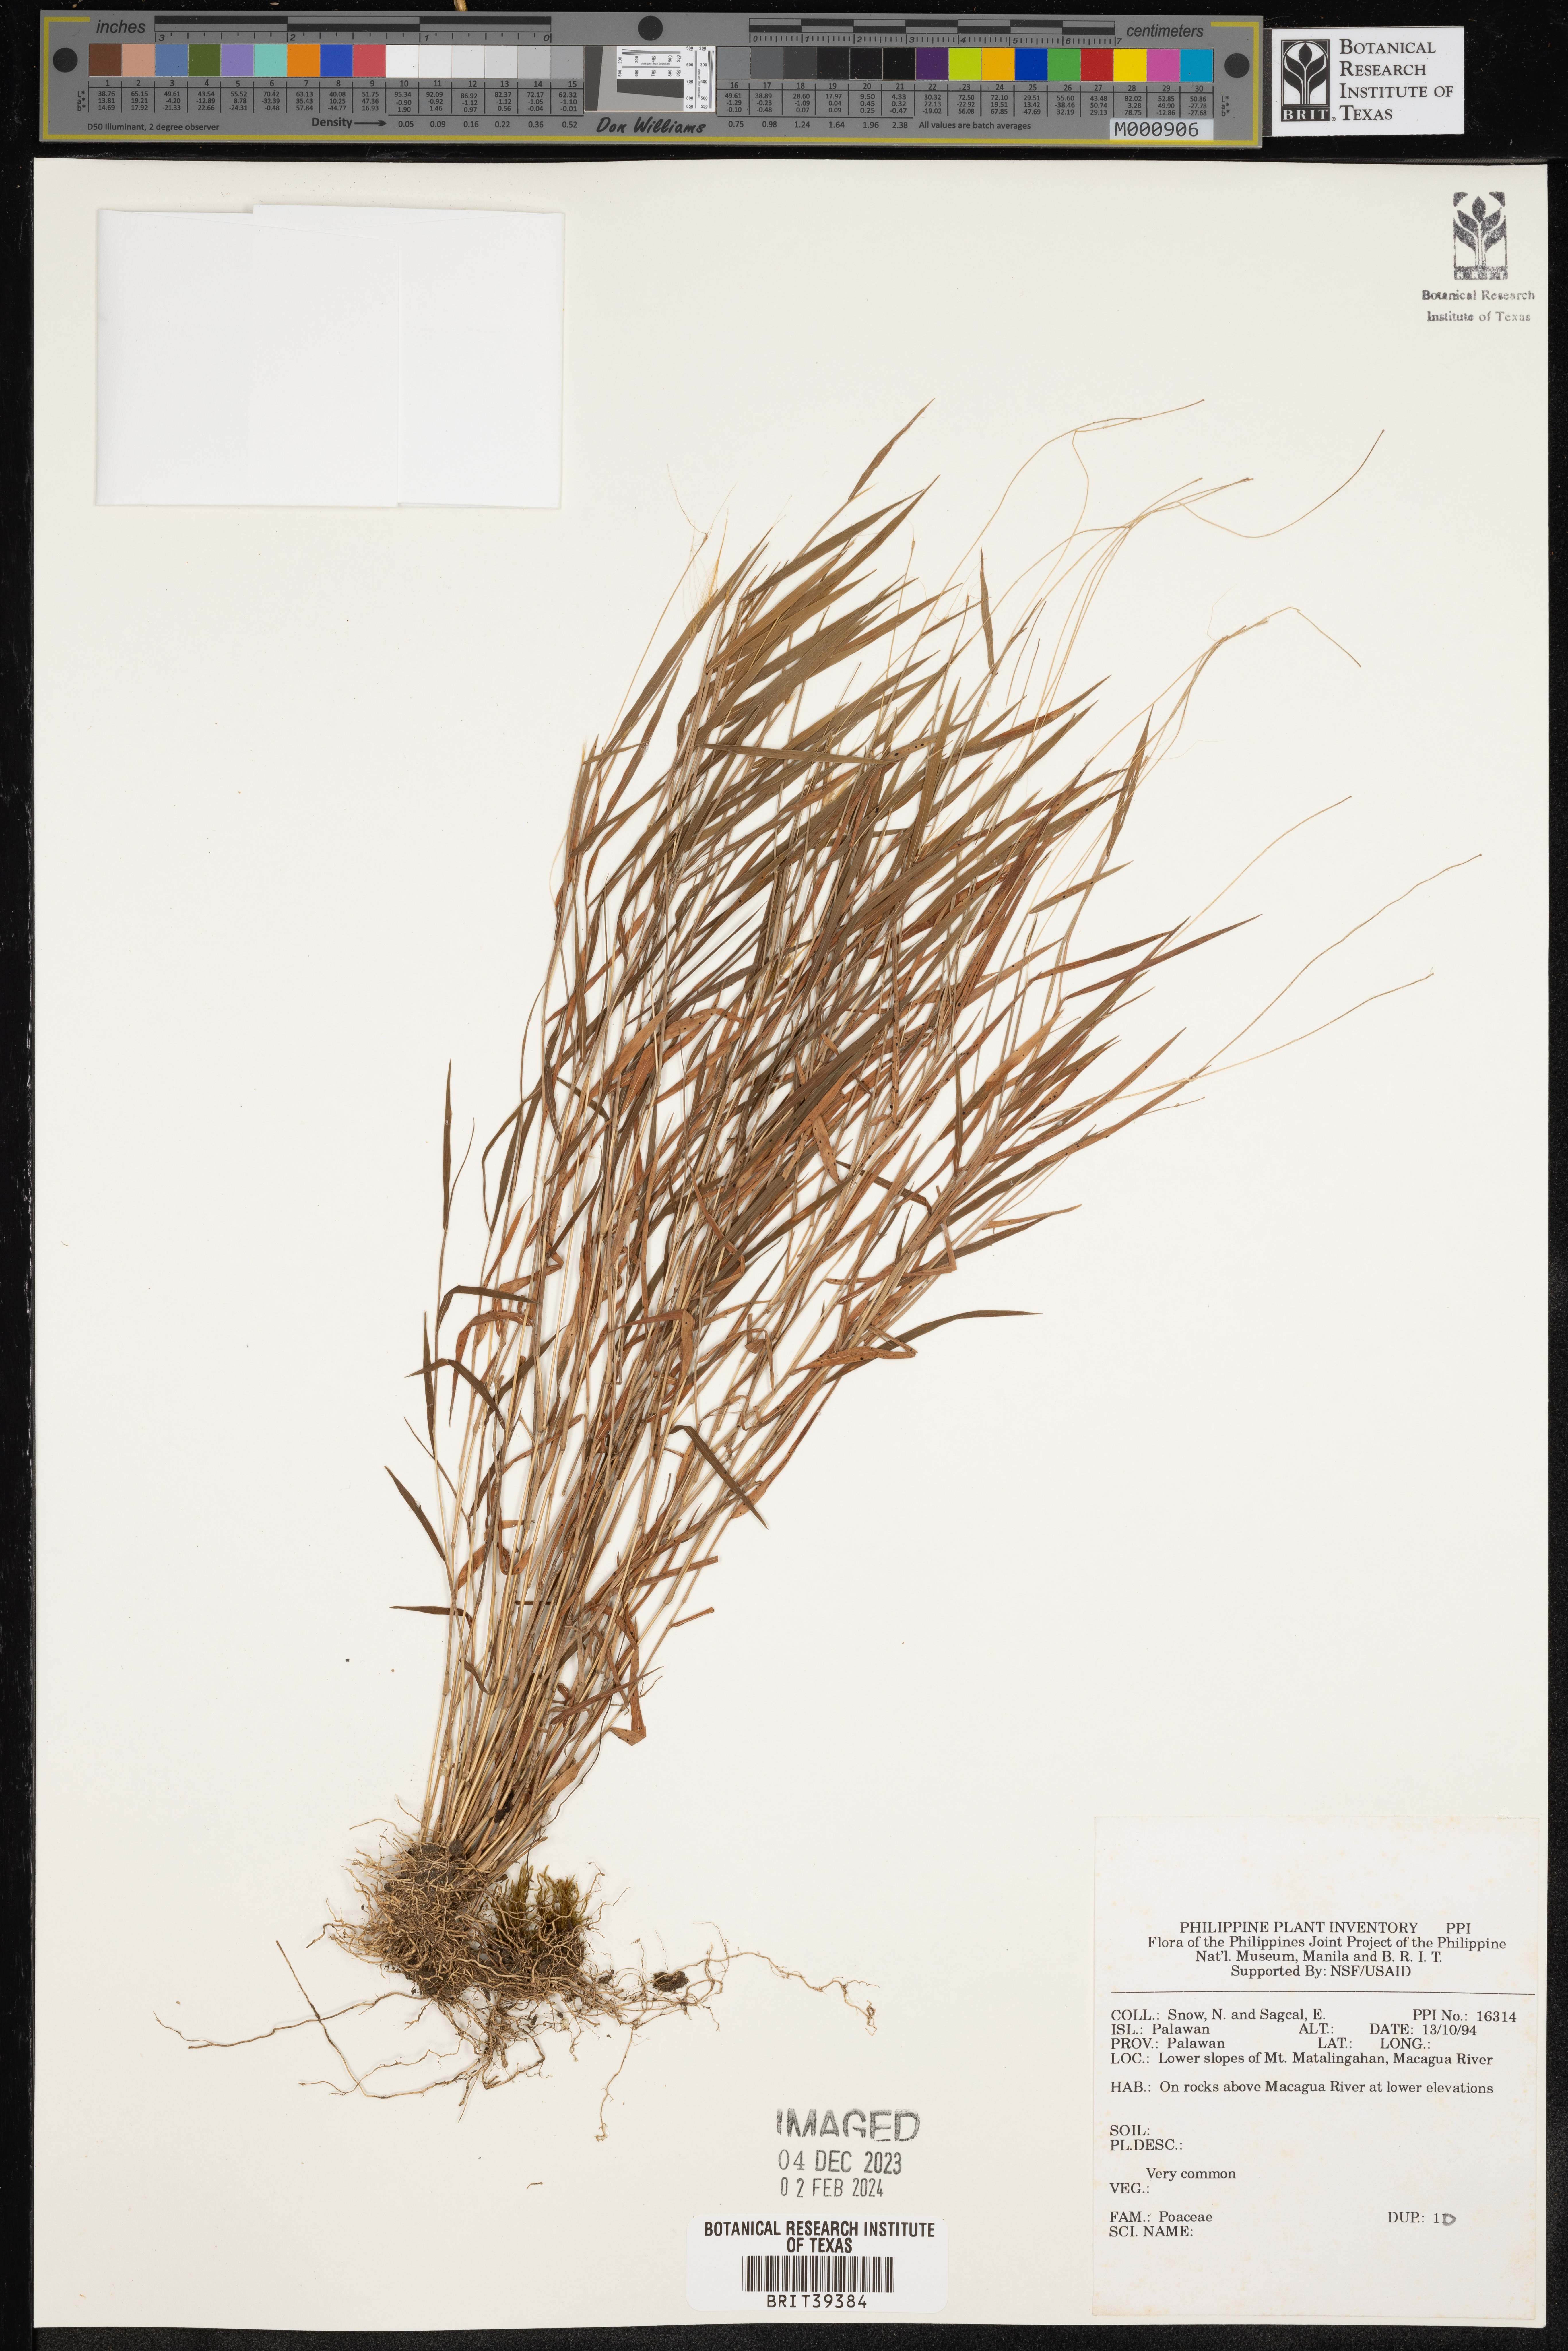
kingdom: Plantae
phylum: Tracheophyta
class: Liliopsida
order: Poales
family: Poaceae
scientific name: Poaceae
